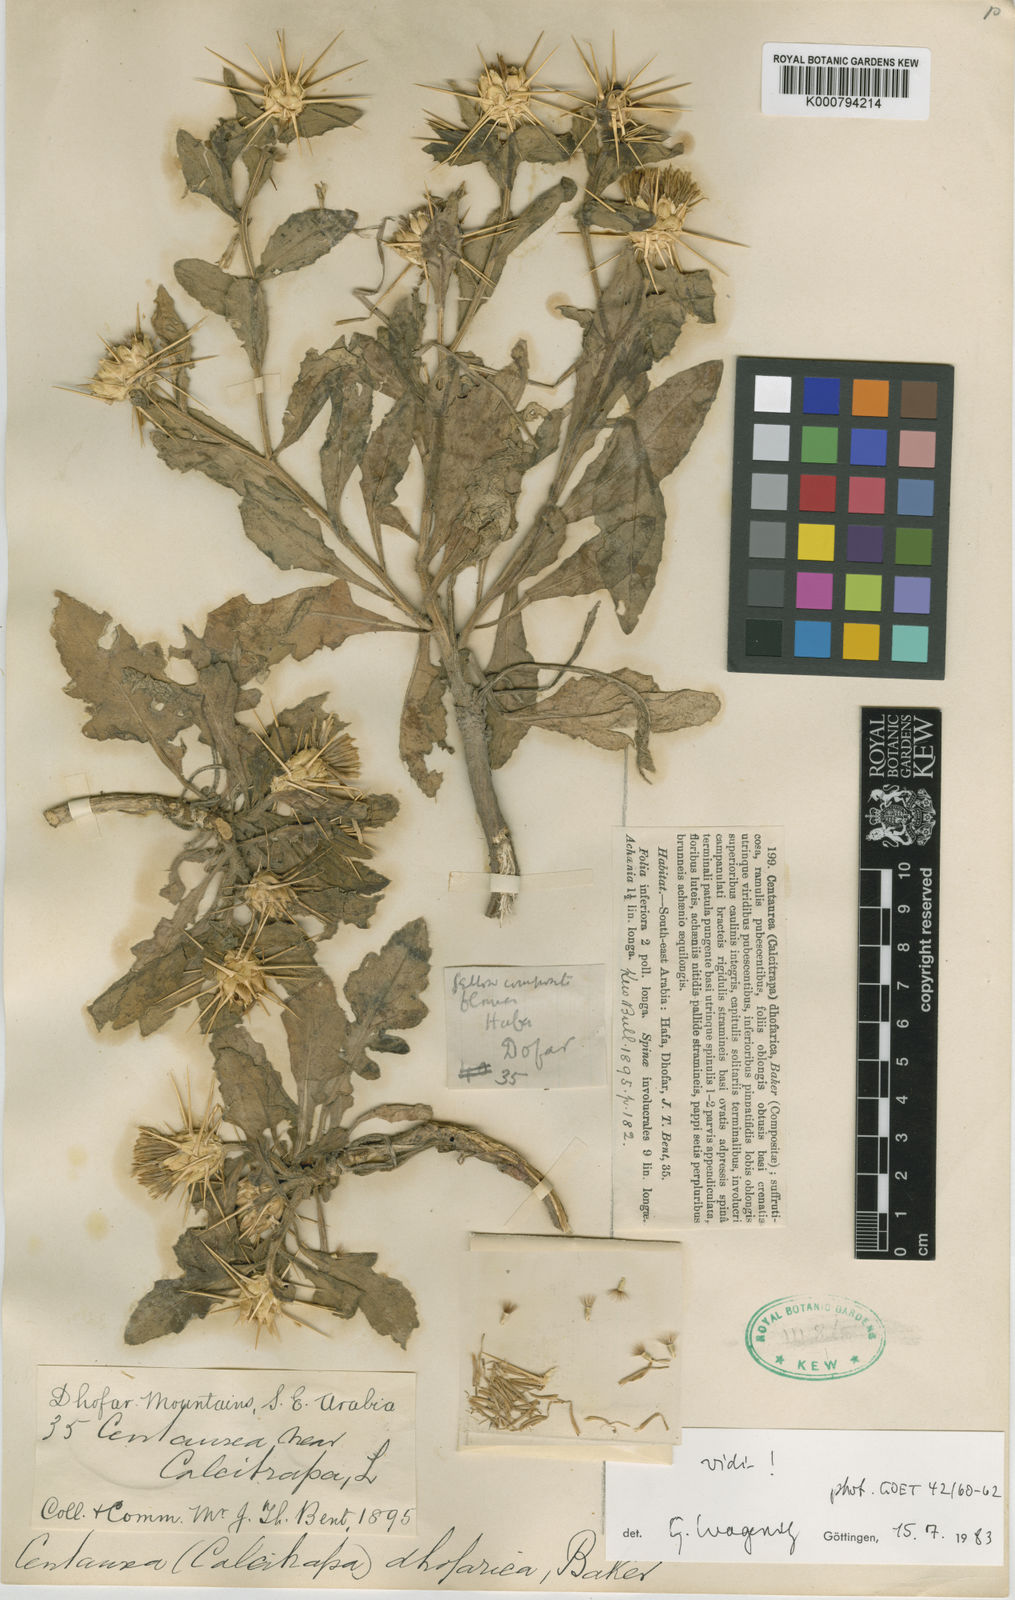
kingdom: Plantae
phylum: Tracheophyta
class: Magnoliopsida
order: Asterales
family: Asteraceae
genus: Centaurea
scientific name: Centaurea dhofarica
